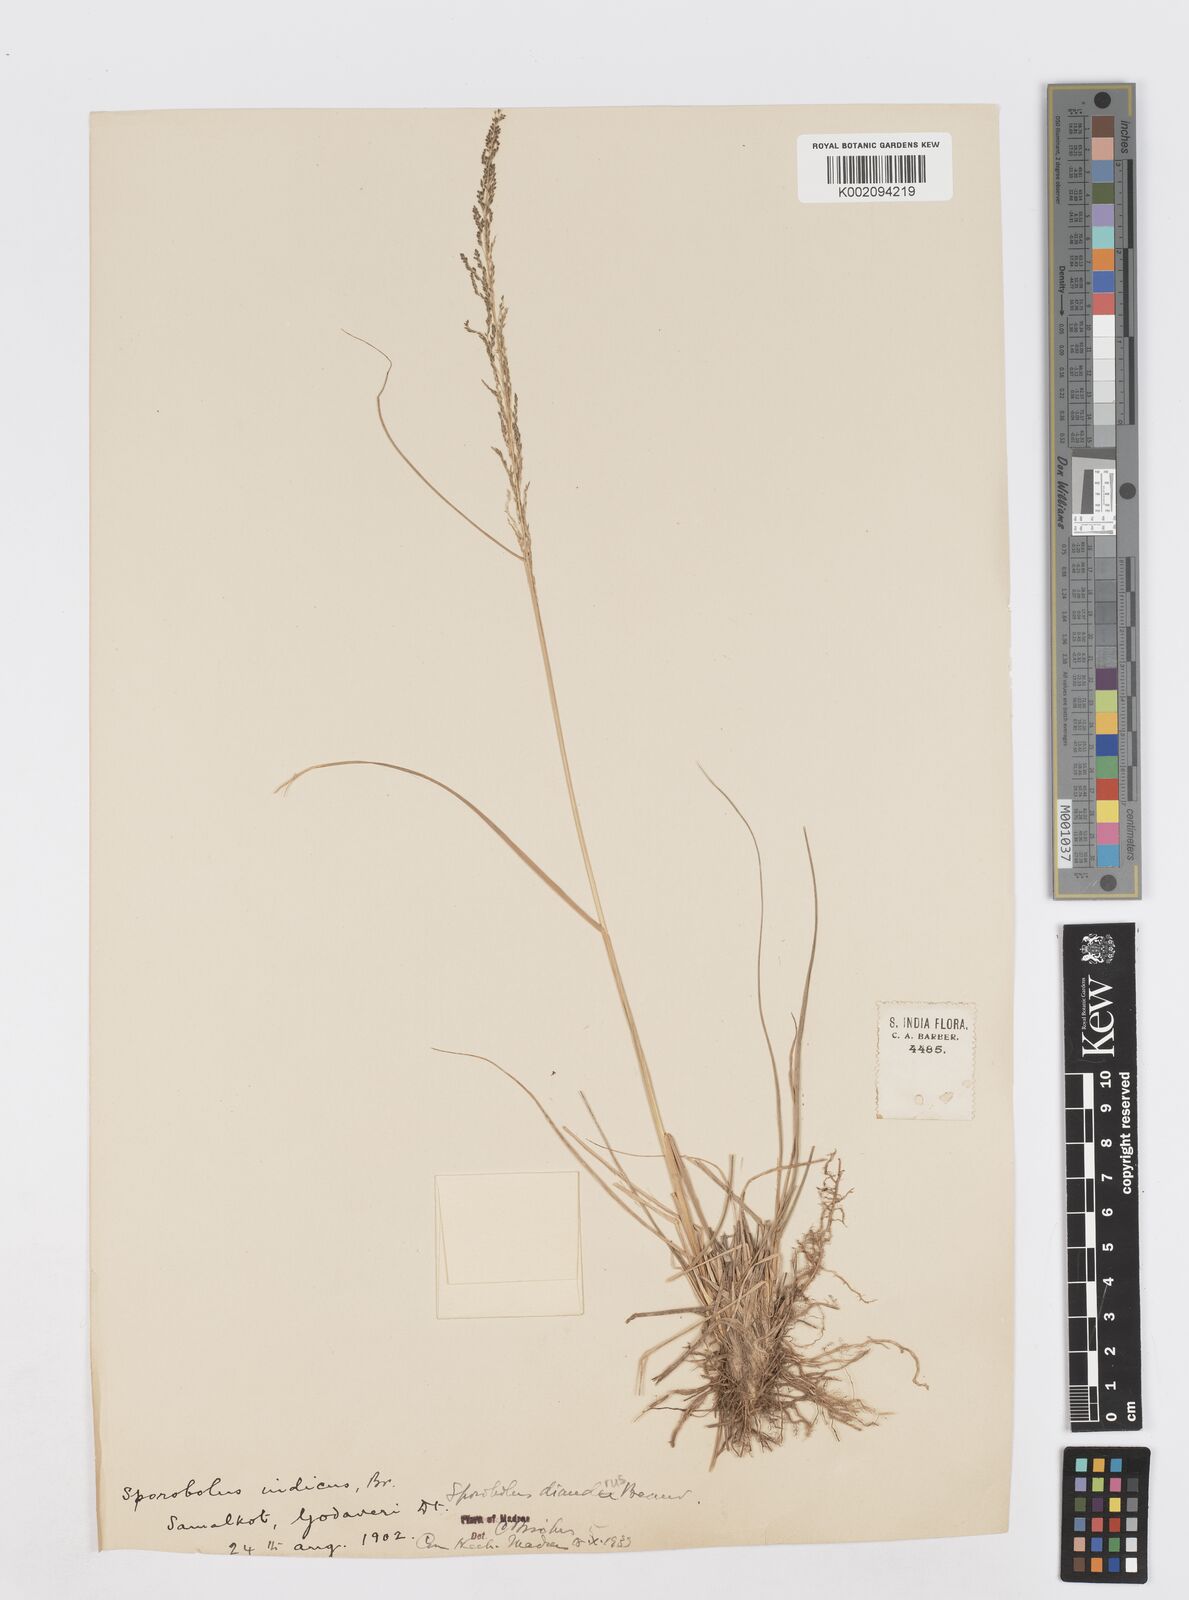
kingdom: Plantae
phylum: Tracheophyta
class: Liliopsida
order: Poales
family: Poaceae
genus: Sporobolus
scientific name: Sporobolus diandrus
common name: Tussock dropseed
